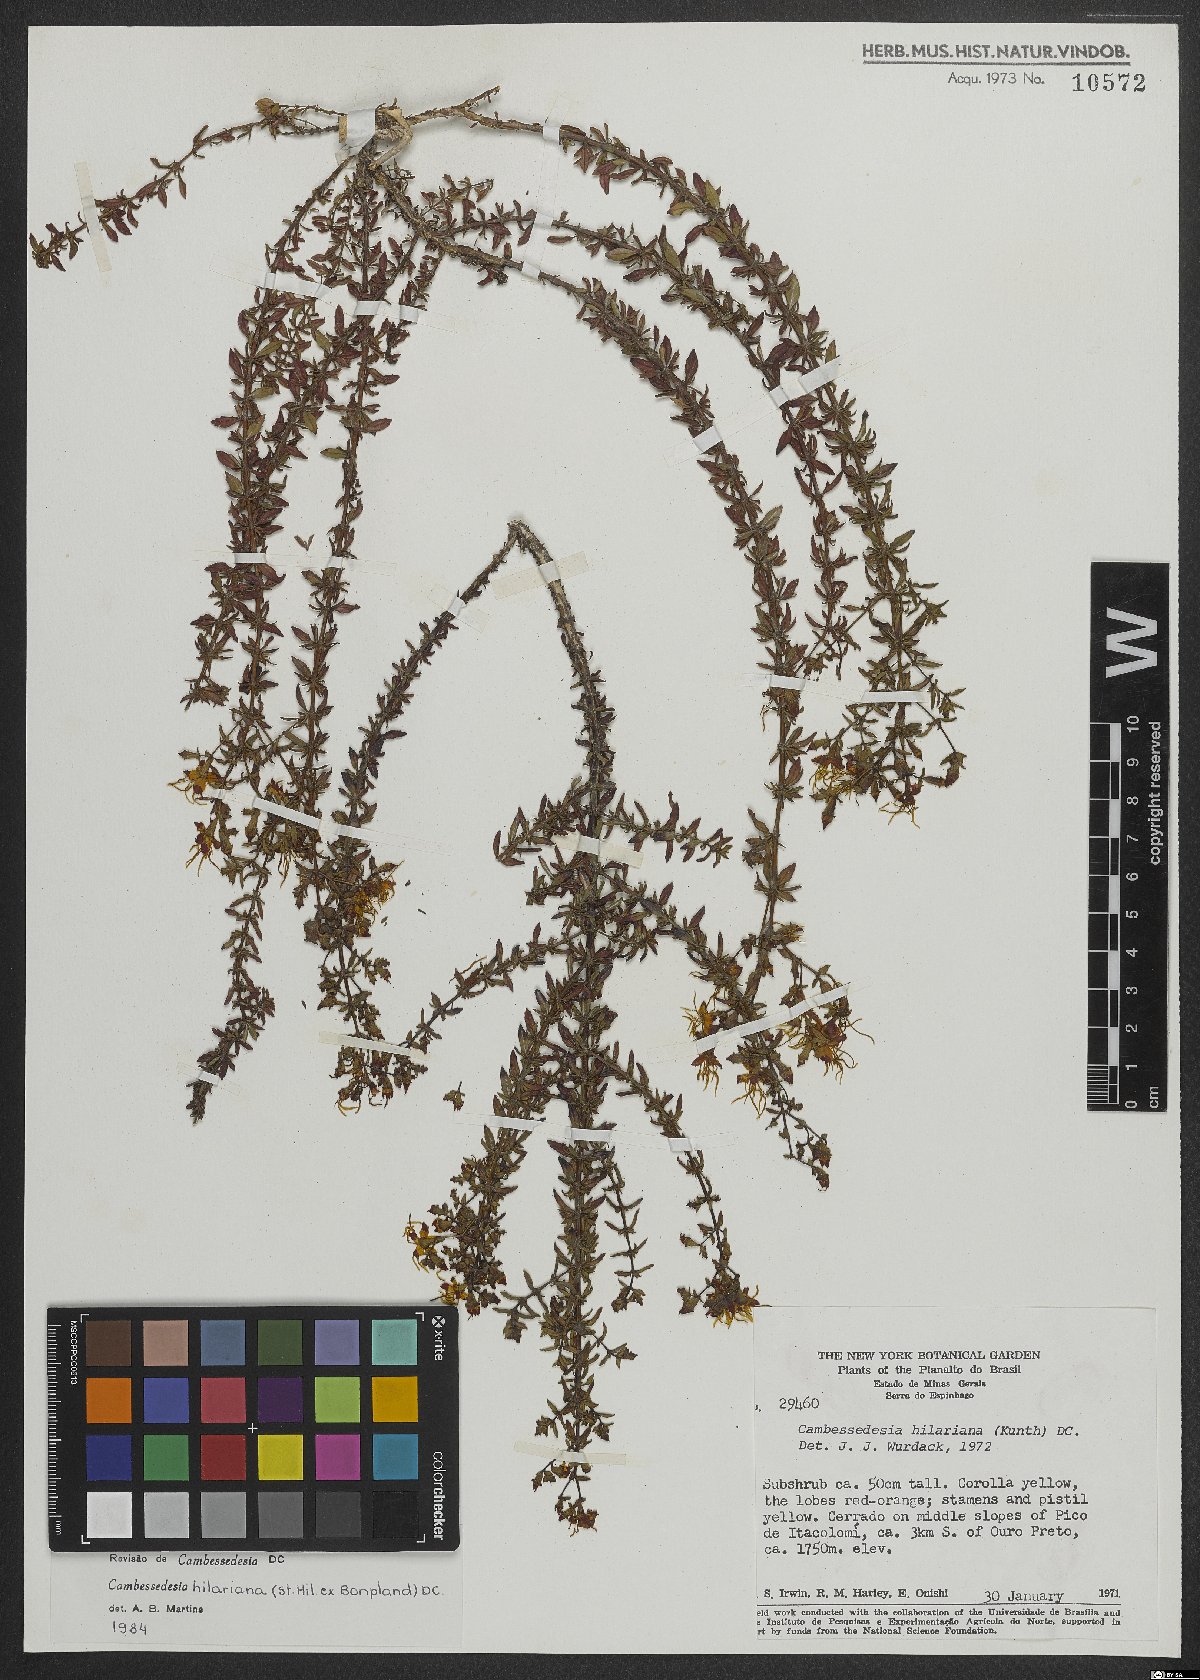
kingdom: Plantae
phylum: Tracheophyta
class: Magnoliopsida
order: Myrtales
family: Melastomataceae
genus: Cambessedesia
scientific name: Cambessedesia hilariana
